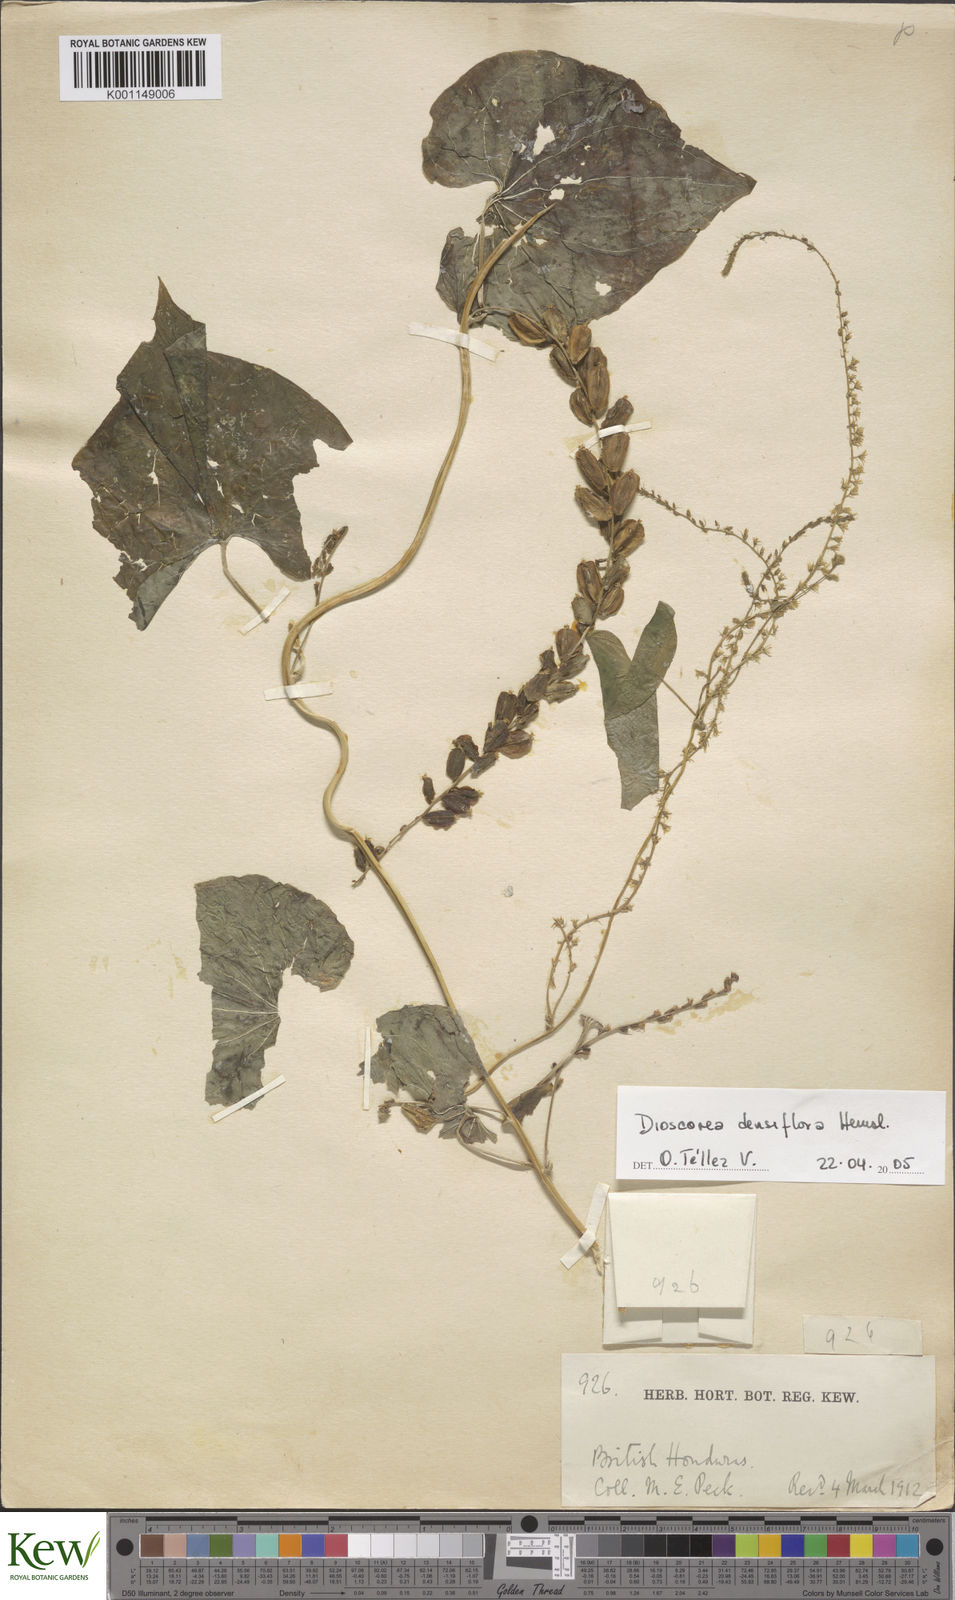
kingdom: Plantae
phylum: Tracheophyta
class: Liliopsida
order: Dioscoreales
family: Dioscoreaceae
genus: Dioscorea
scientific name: Dioscorea densiflora
